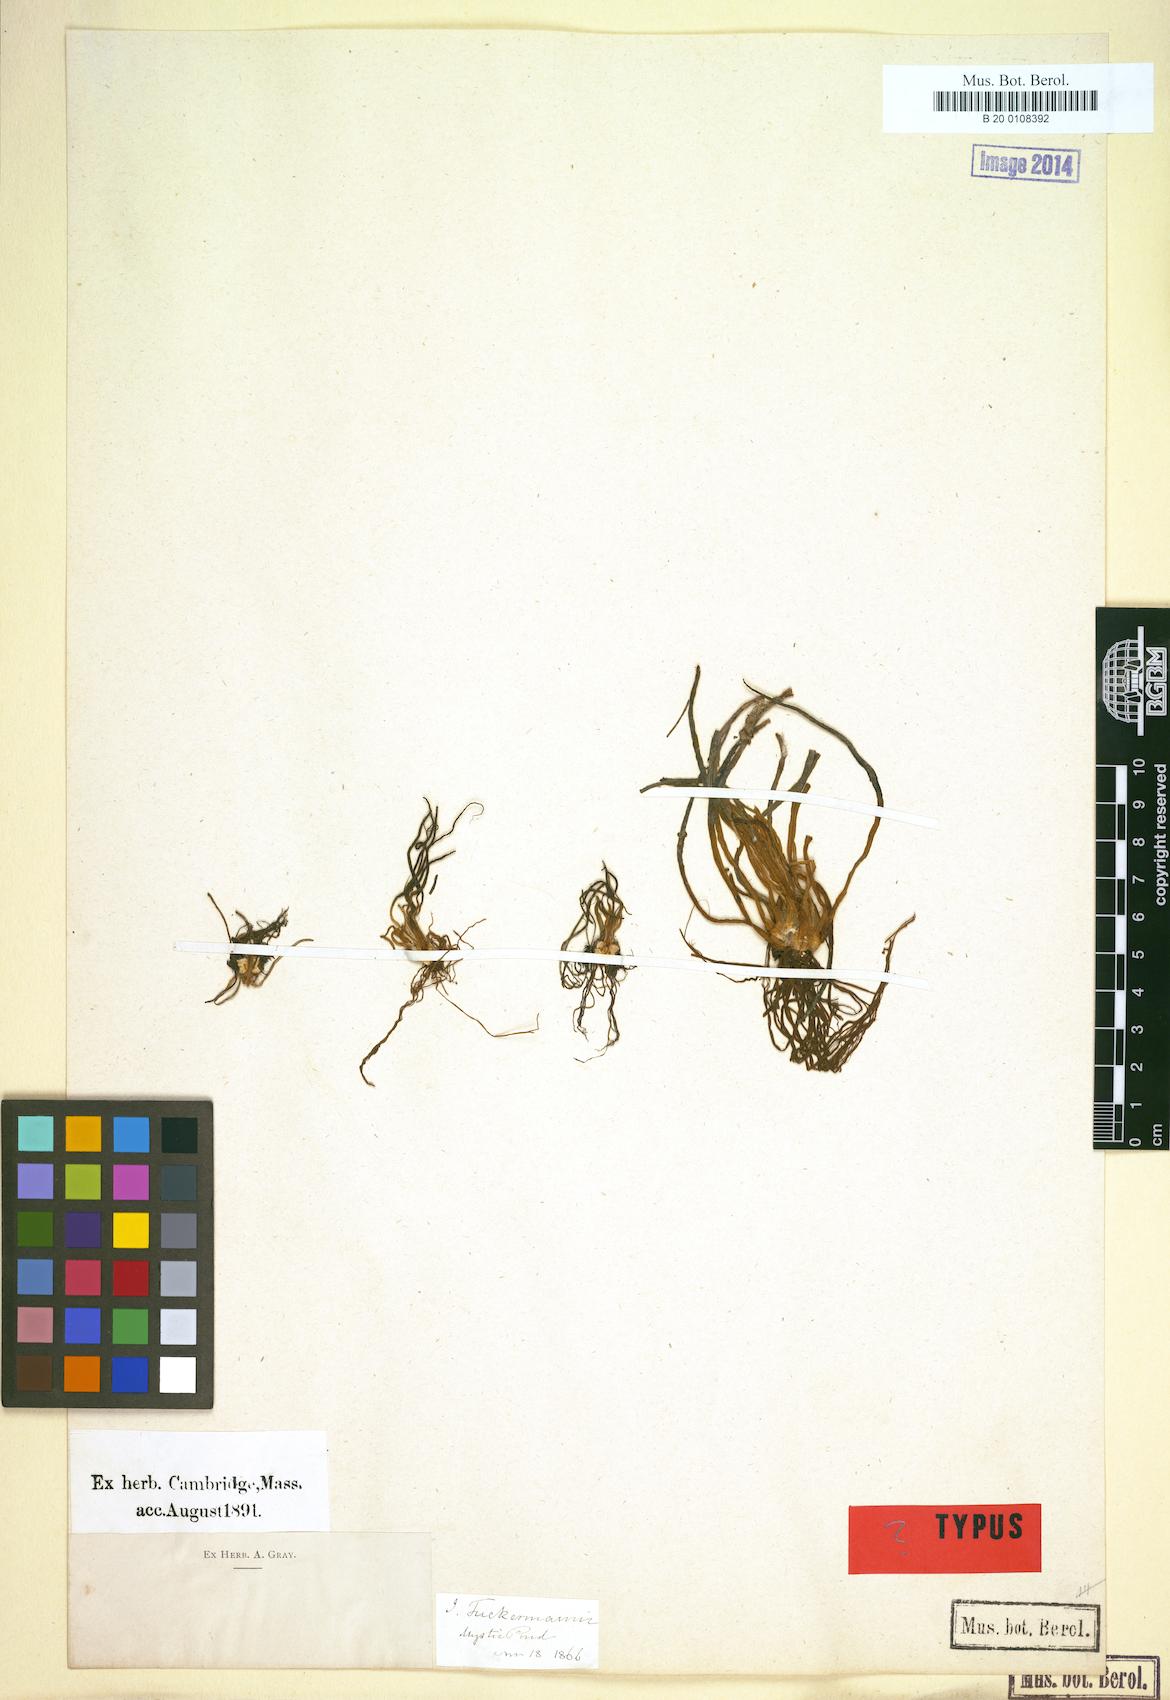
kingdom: Plantae
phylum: Tracheophyta
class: Lycopodiopsida
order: Isoetales
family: Isoetaceae
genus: Isoetes
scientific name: Isoetes tuckermanii
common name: Tuckerman's quillwort
